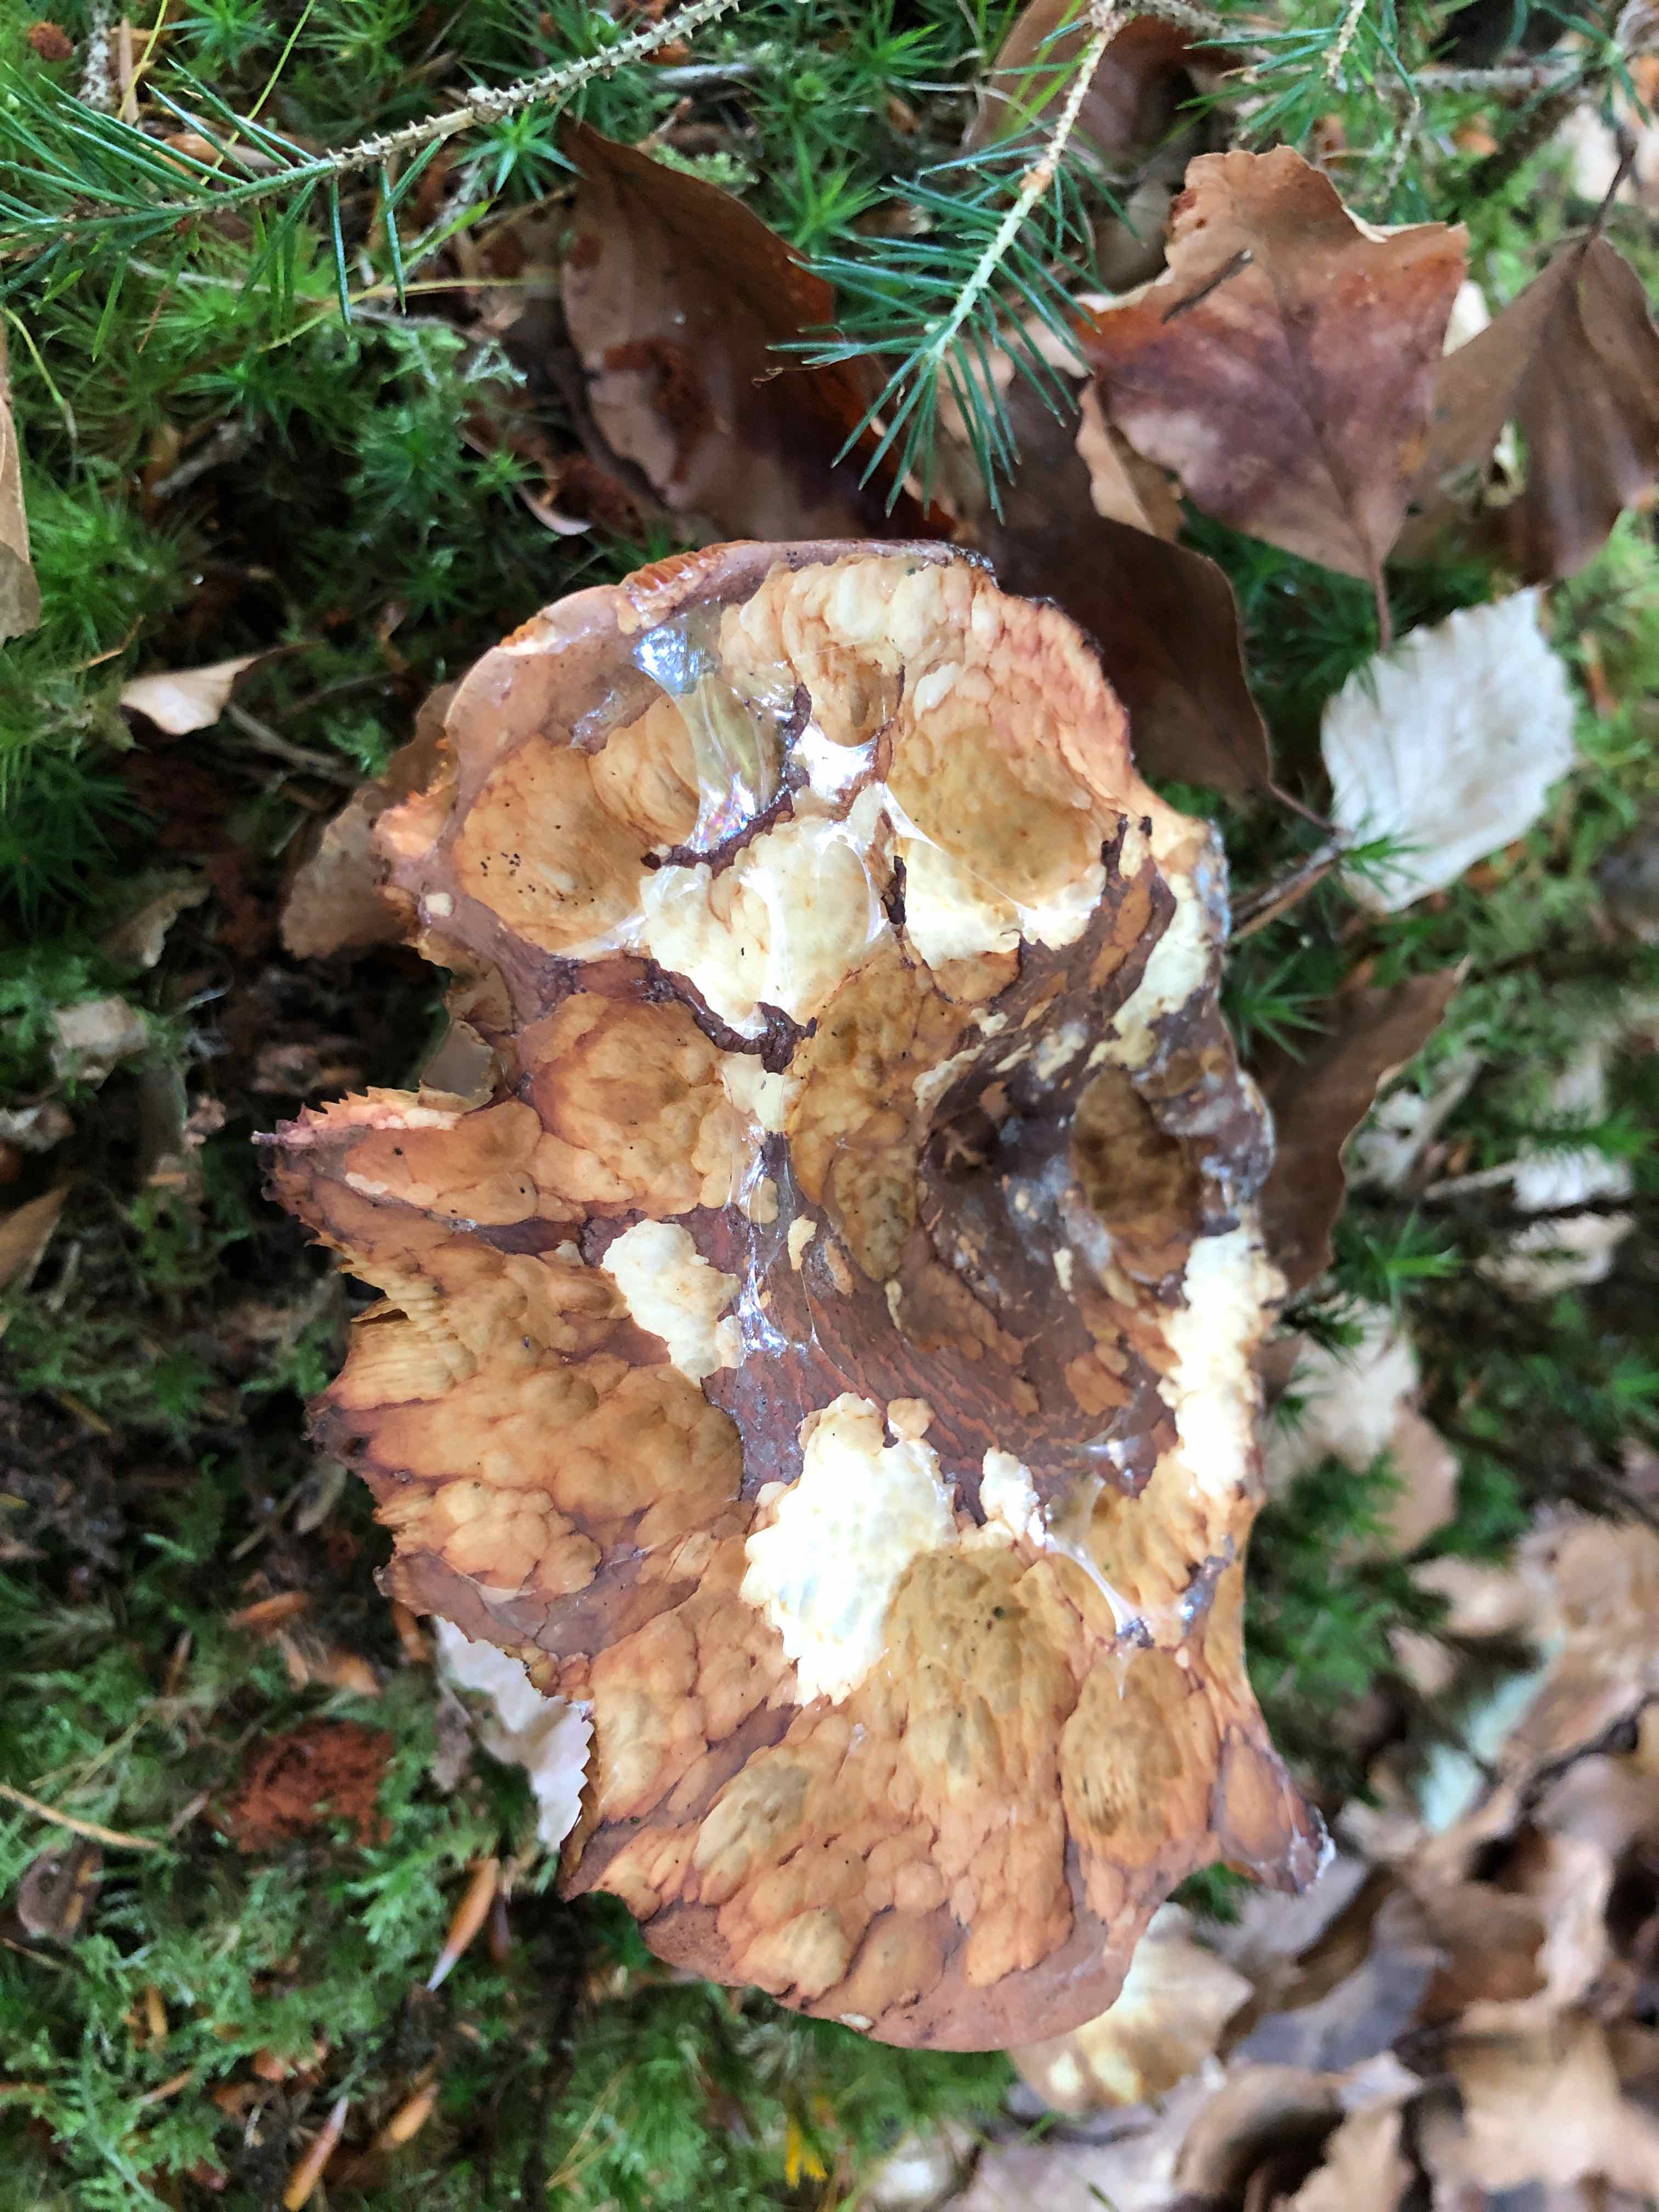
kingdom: Fungi
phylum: Basidiomycota
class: Agaricomycetes
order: Boletales
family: Tapinellaceae
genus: Tapinella
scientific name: Tapinella atrotomentosa
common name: sortfiltet viftesvamp
